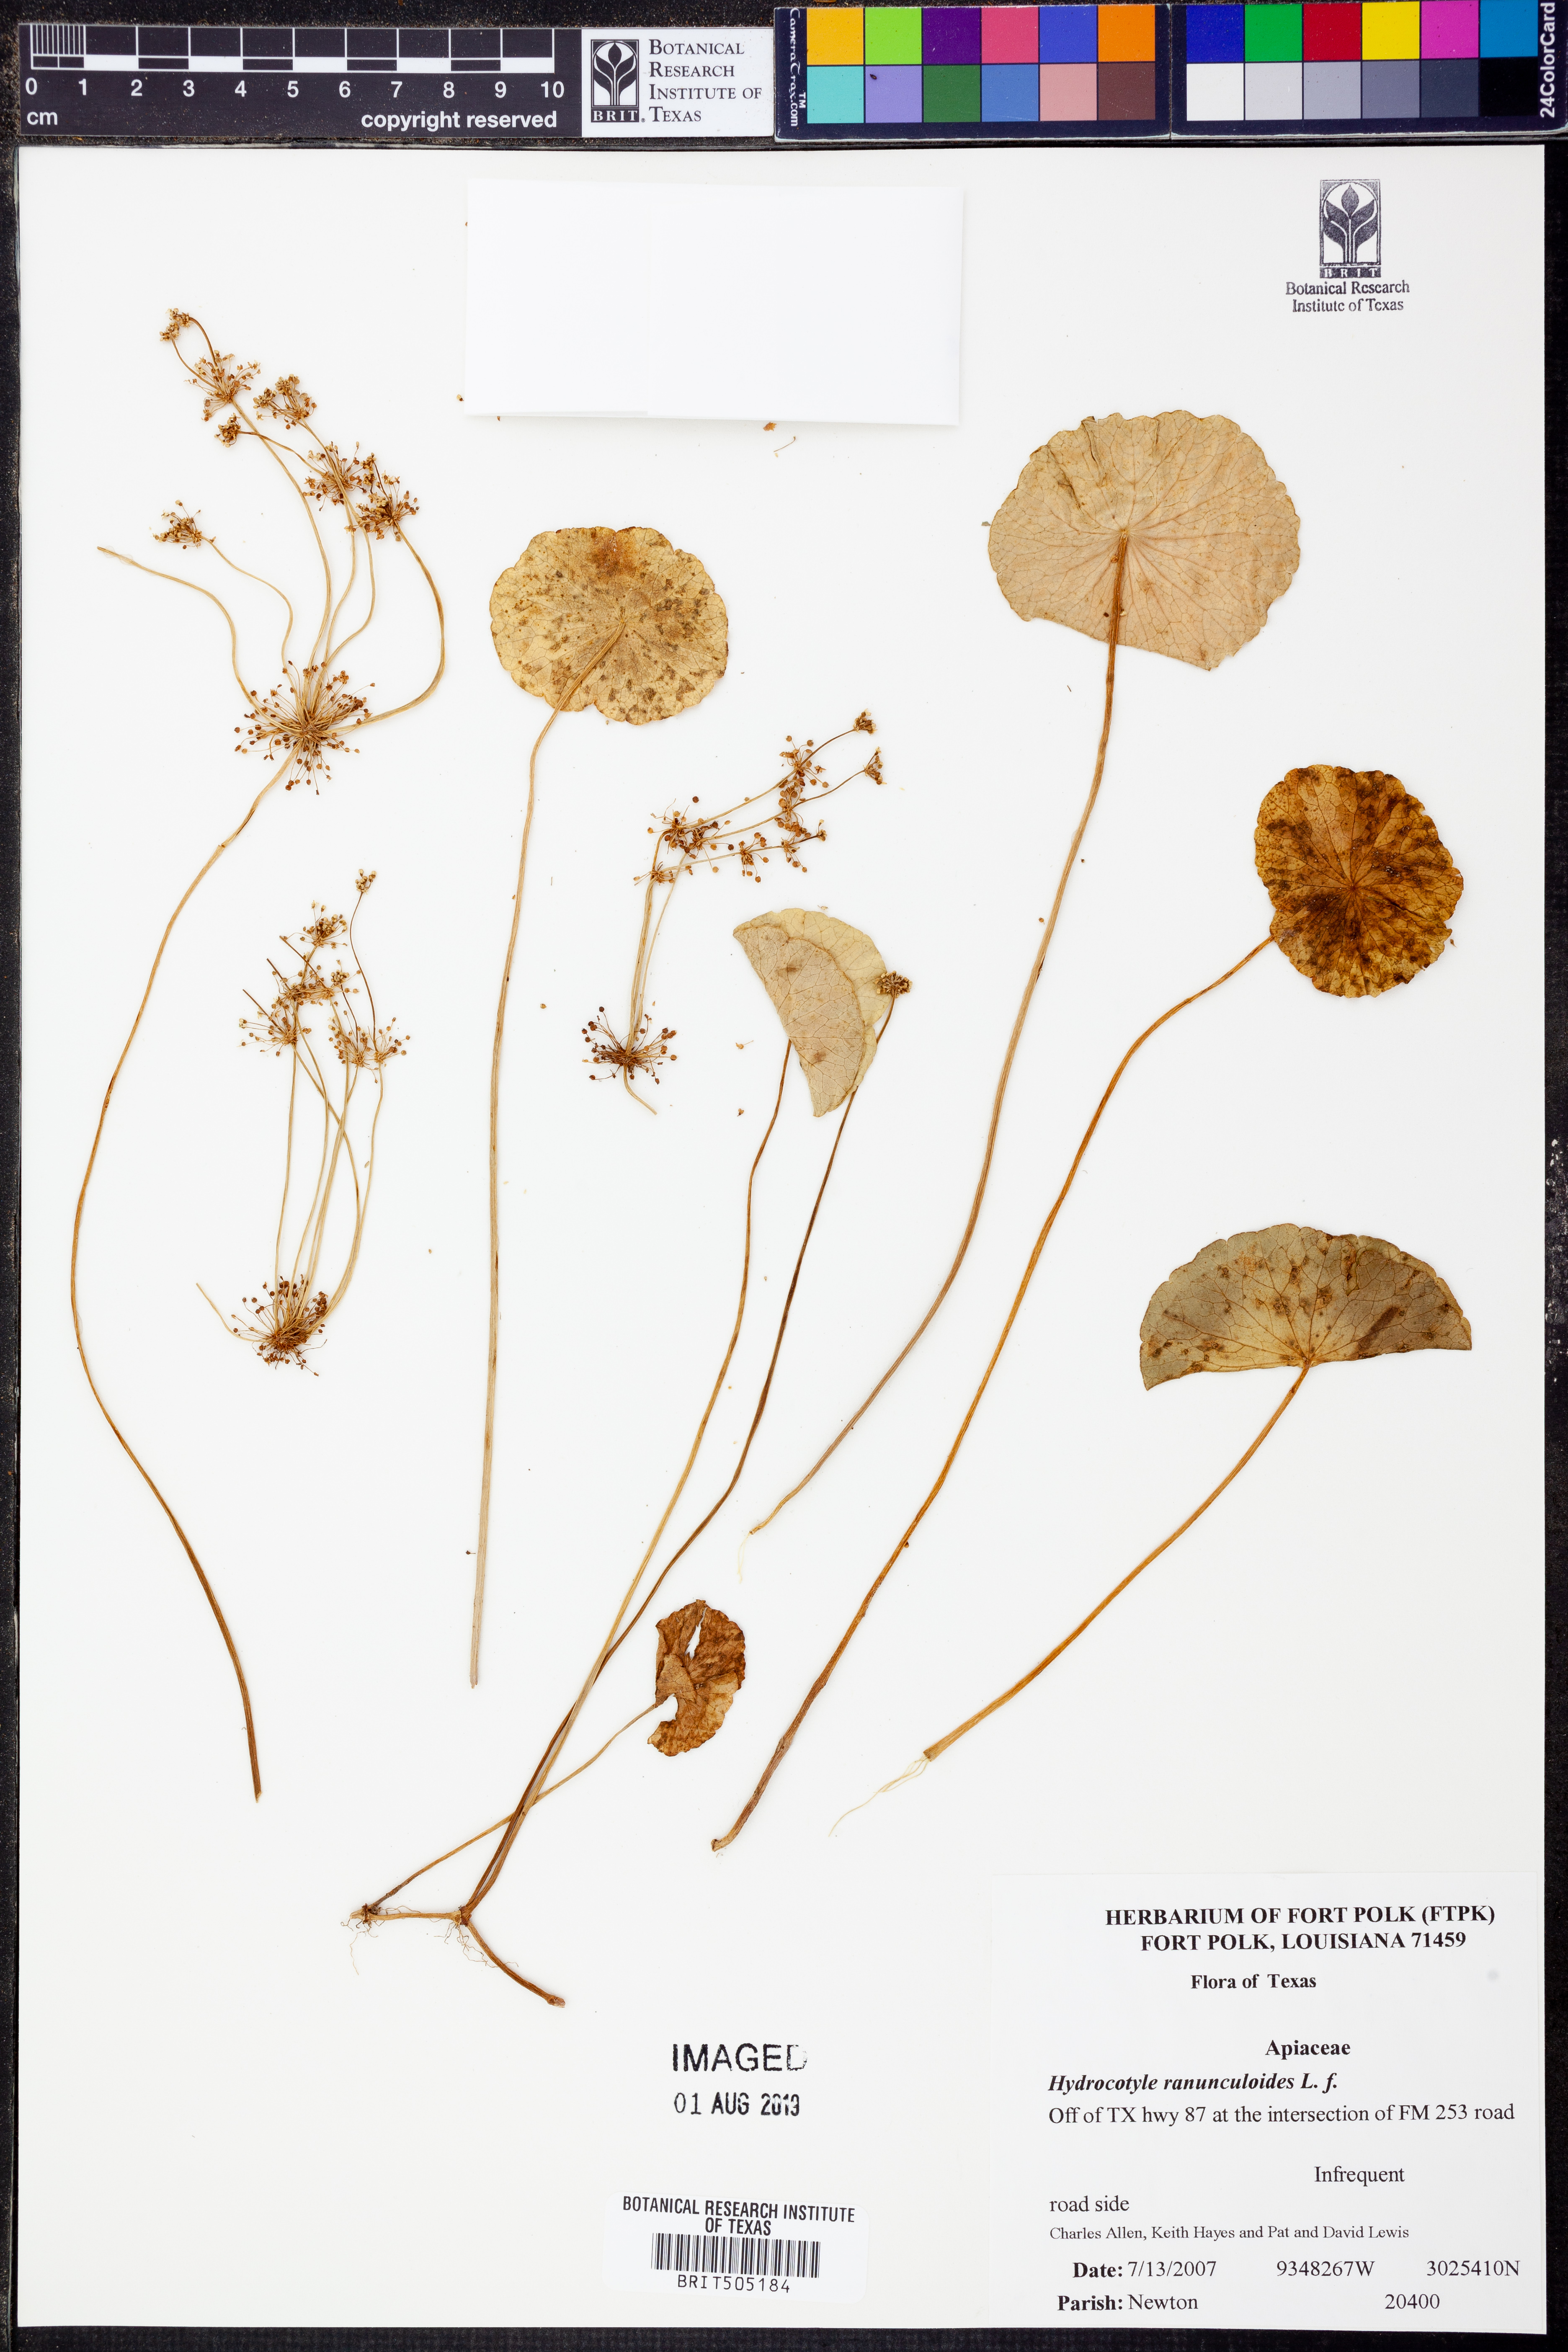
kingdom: Plantae
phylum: Tracheophyta
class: Magnoliopsida
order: Apiales
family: Araliaceae
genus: Hydrocotyle
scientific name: Hydrocotyle ranunculoides
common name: Floating pennywort
